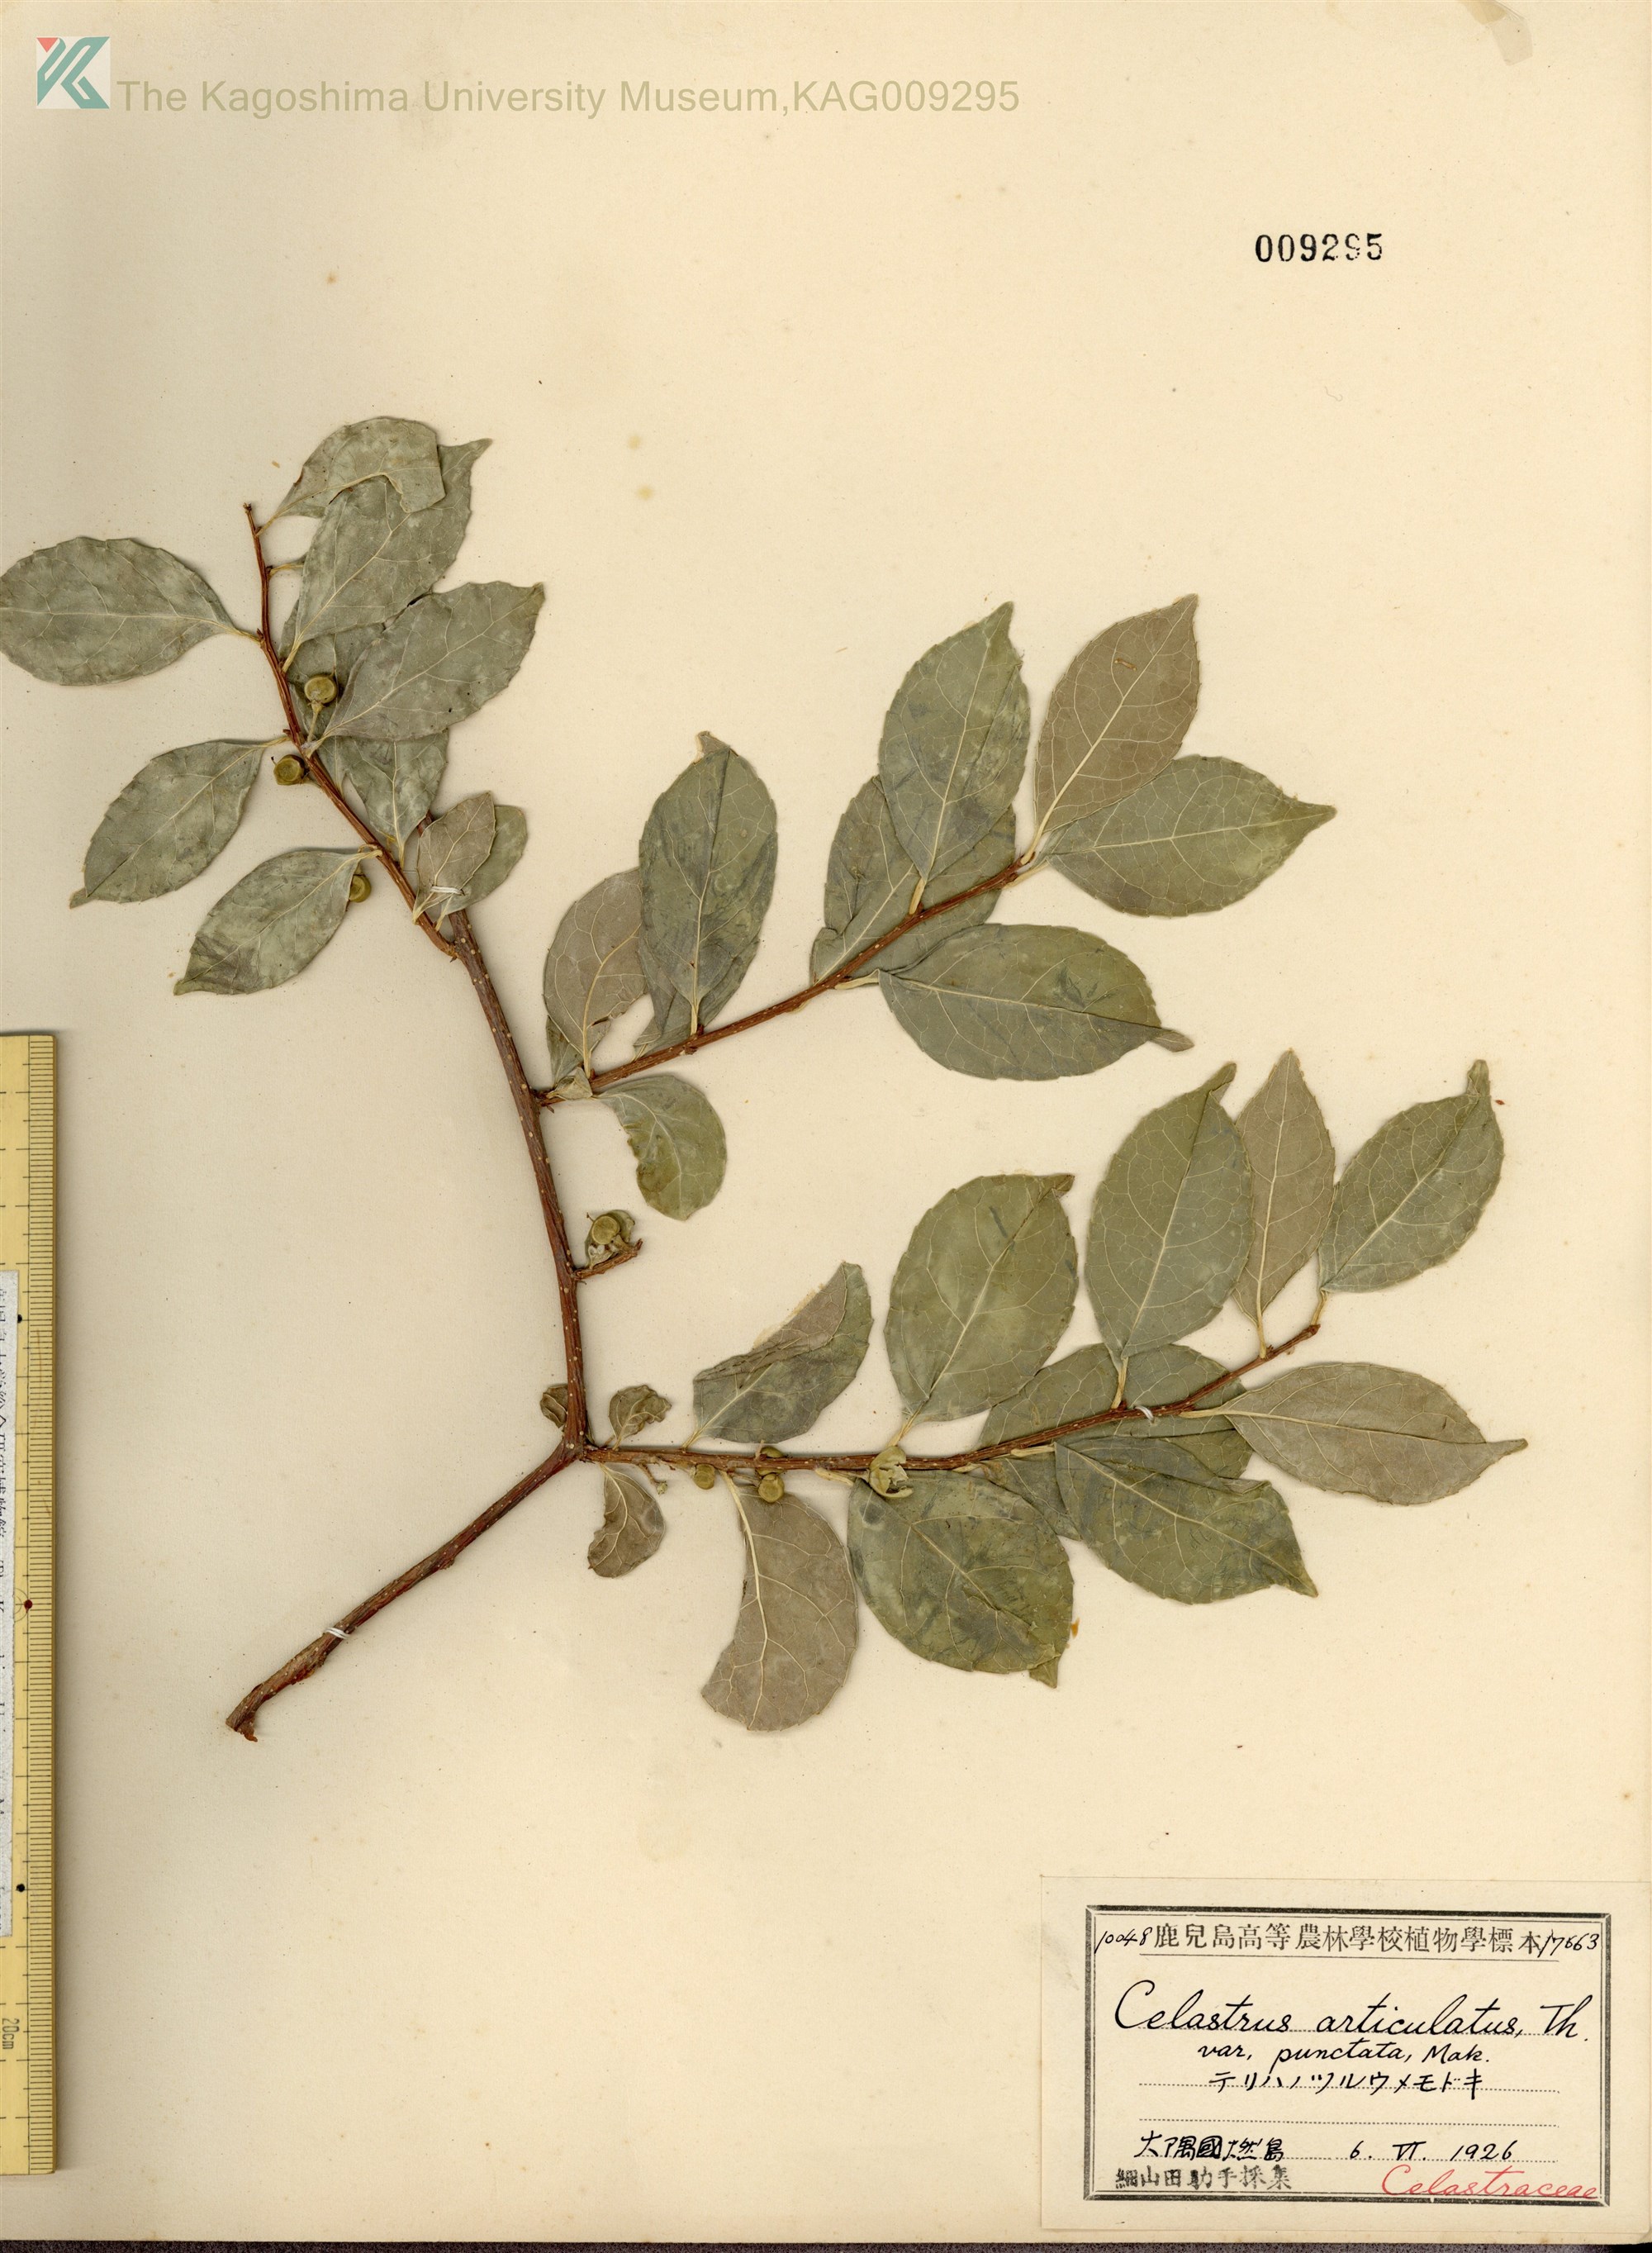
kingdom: Plantae
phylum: Tracheophyta
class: Magnoliopsida
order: Celastrales
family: Celastraceae
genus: Celastrus
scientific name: Celastrus punctatus
